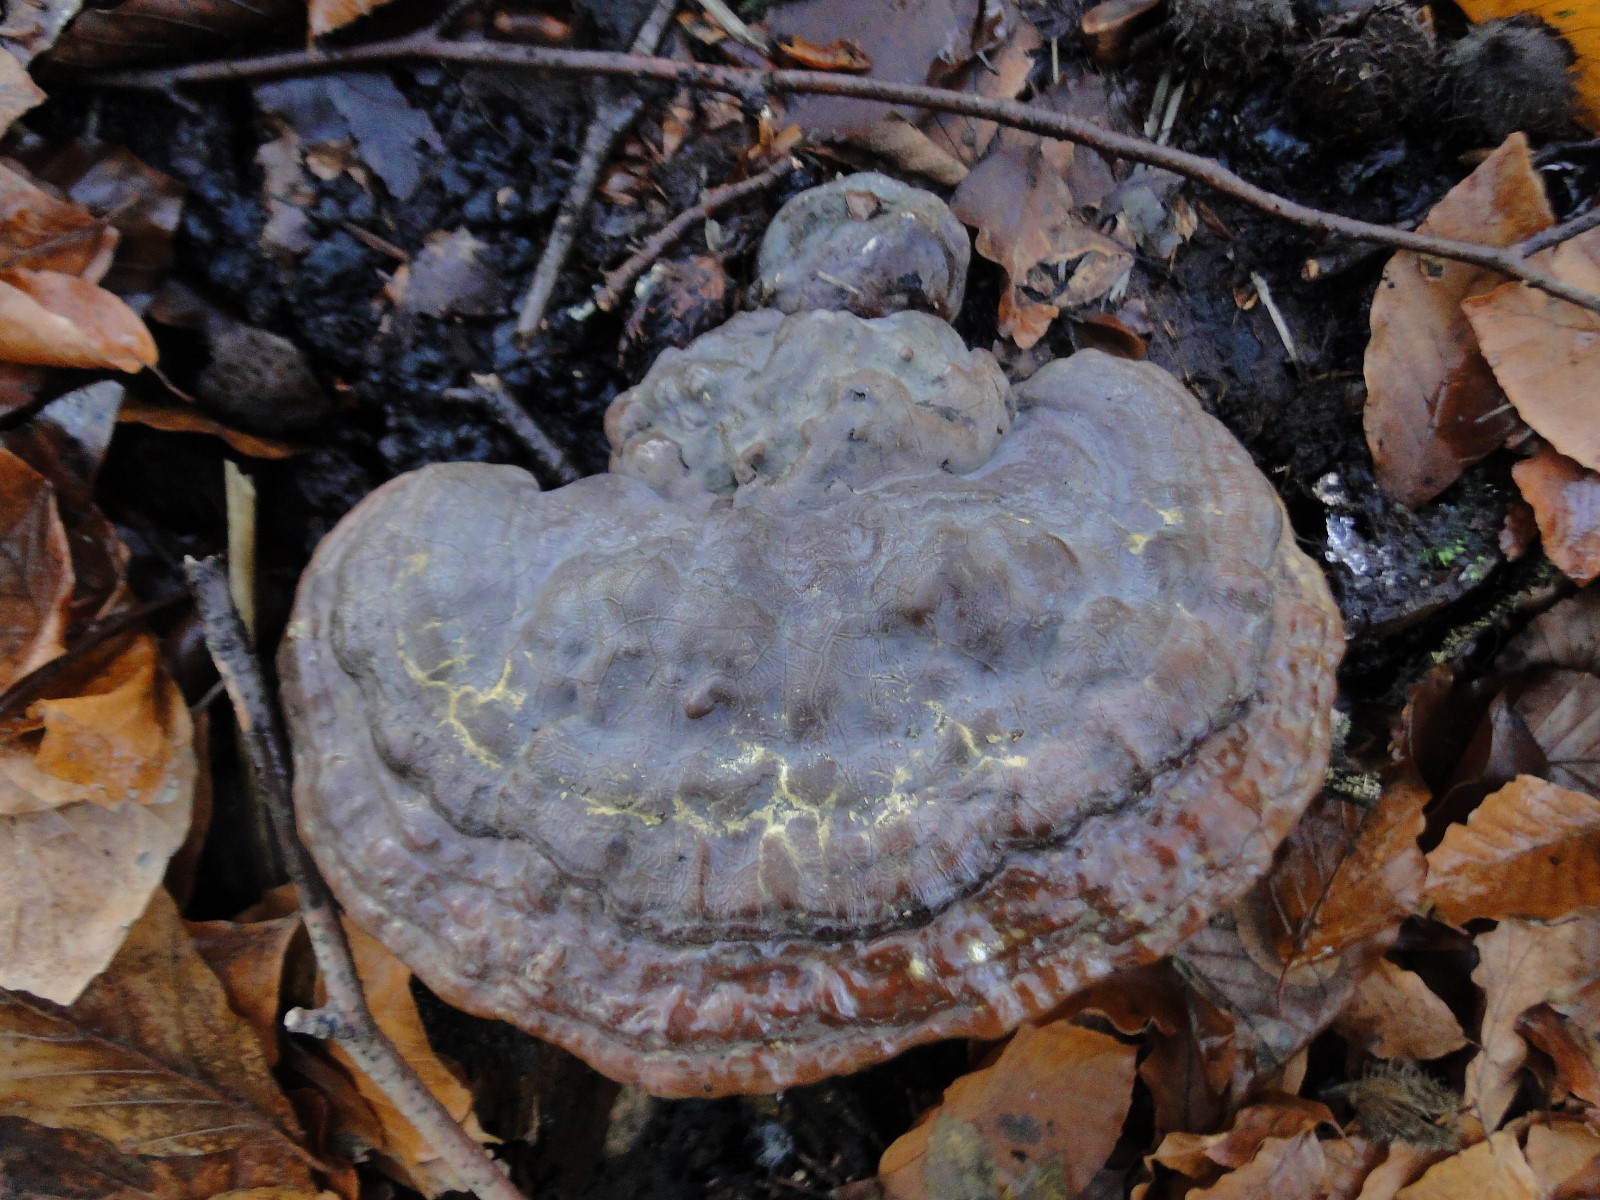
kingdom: Fungi
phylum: Basidiomycota
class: Agaricomycetes
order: Polyporales
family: Polyporaceae
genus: Ganoderma
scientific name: Ganoderma pfeifferi
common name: kobberrød lakporesvamp
